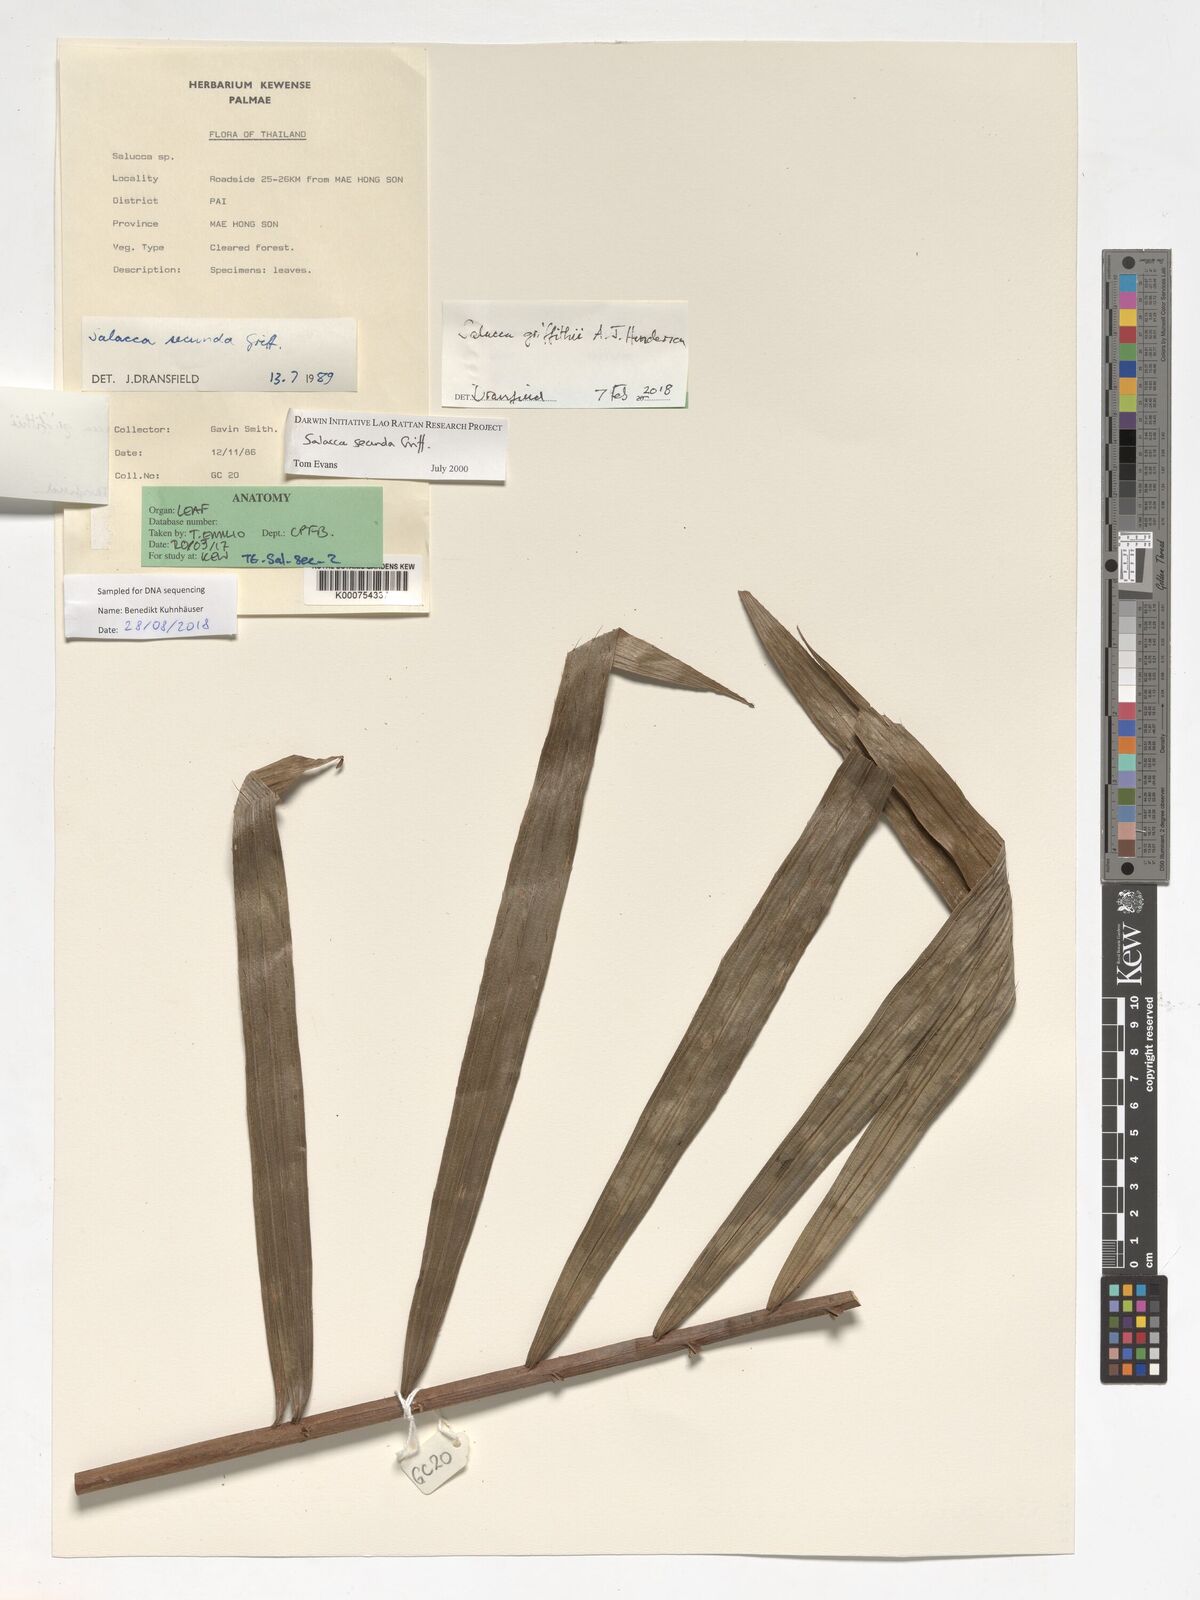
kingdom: Plantae
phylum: Tracheophyta
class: Liliopsida
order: Arecales
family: Arecaceae
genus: Salacca
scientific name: Salacca secunda
